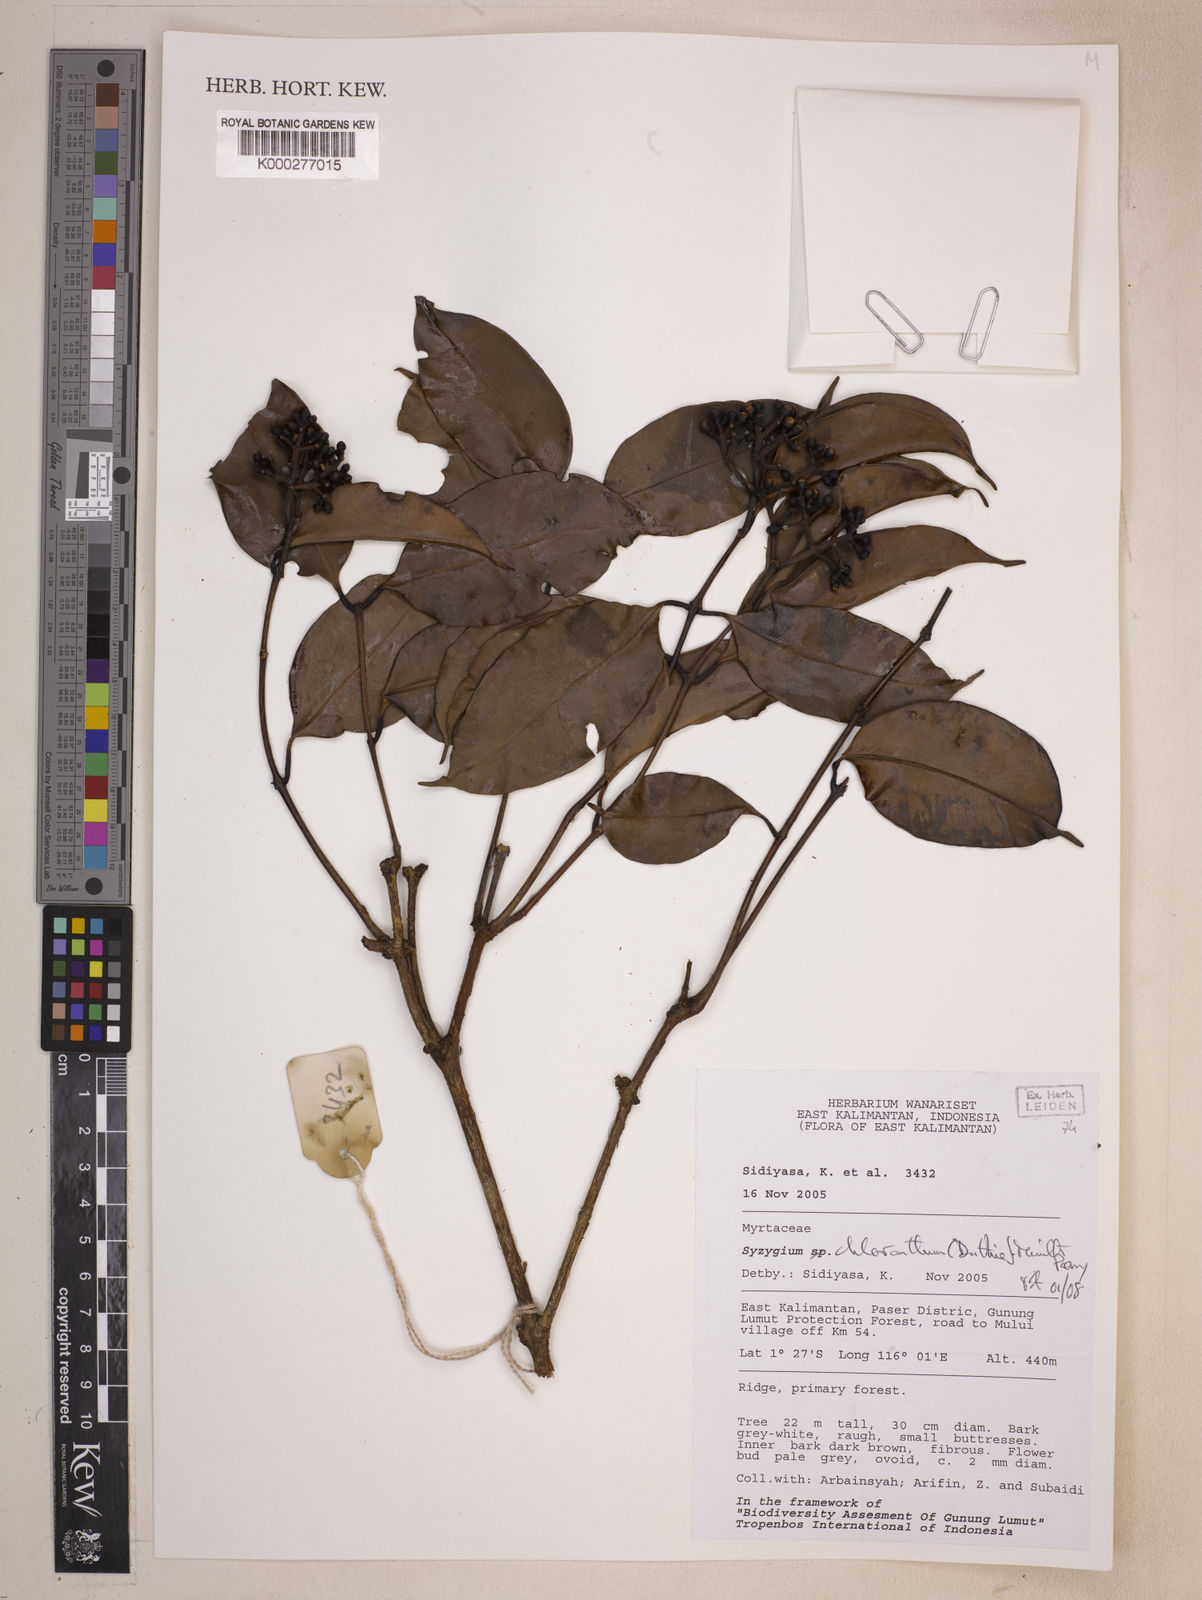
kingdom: Plantae
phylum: Tracheophyta
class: Magnoliopsida
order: Myrtales
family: Myrtaceae
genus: Syzygium
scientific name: Syzygium chloranthum
